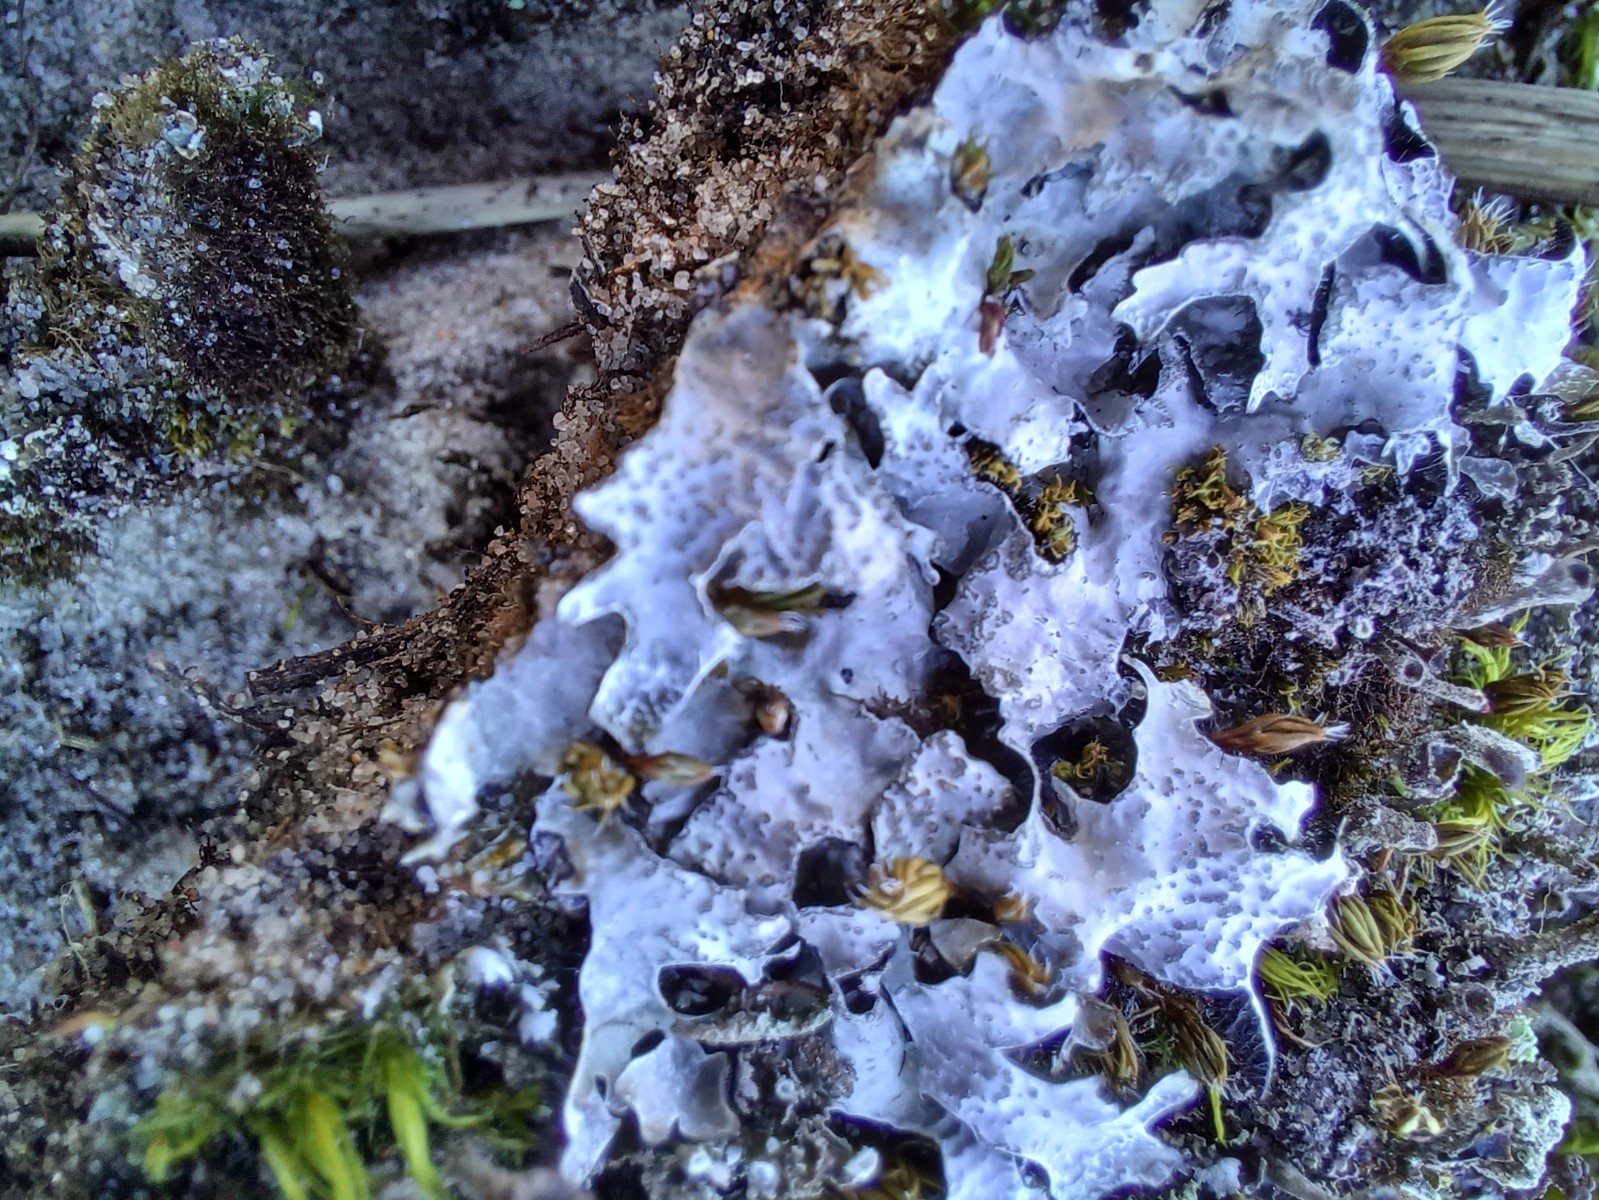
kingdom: Fungi
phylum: Ascomycota
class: Lecanoromycetes
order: Lecanorales
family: Parmeliaceae
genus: Parmelia
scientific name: Parmelia sulcata
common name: rynket skållav
